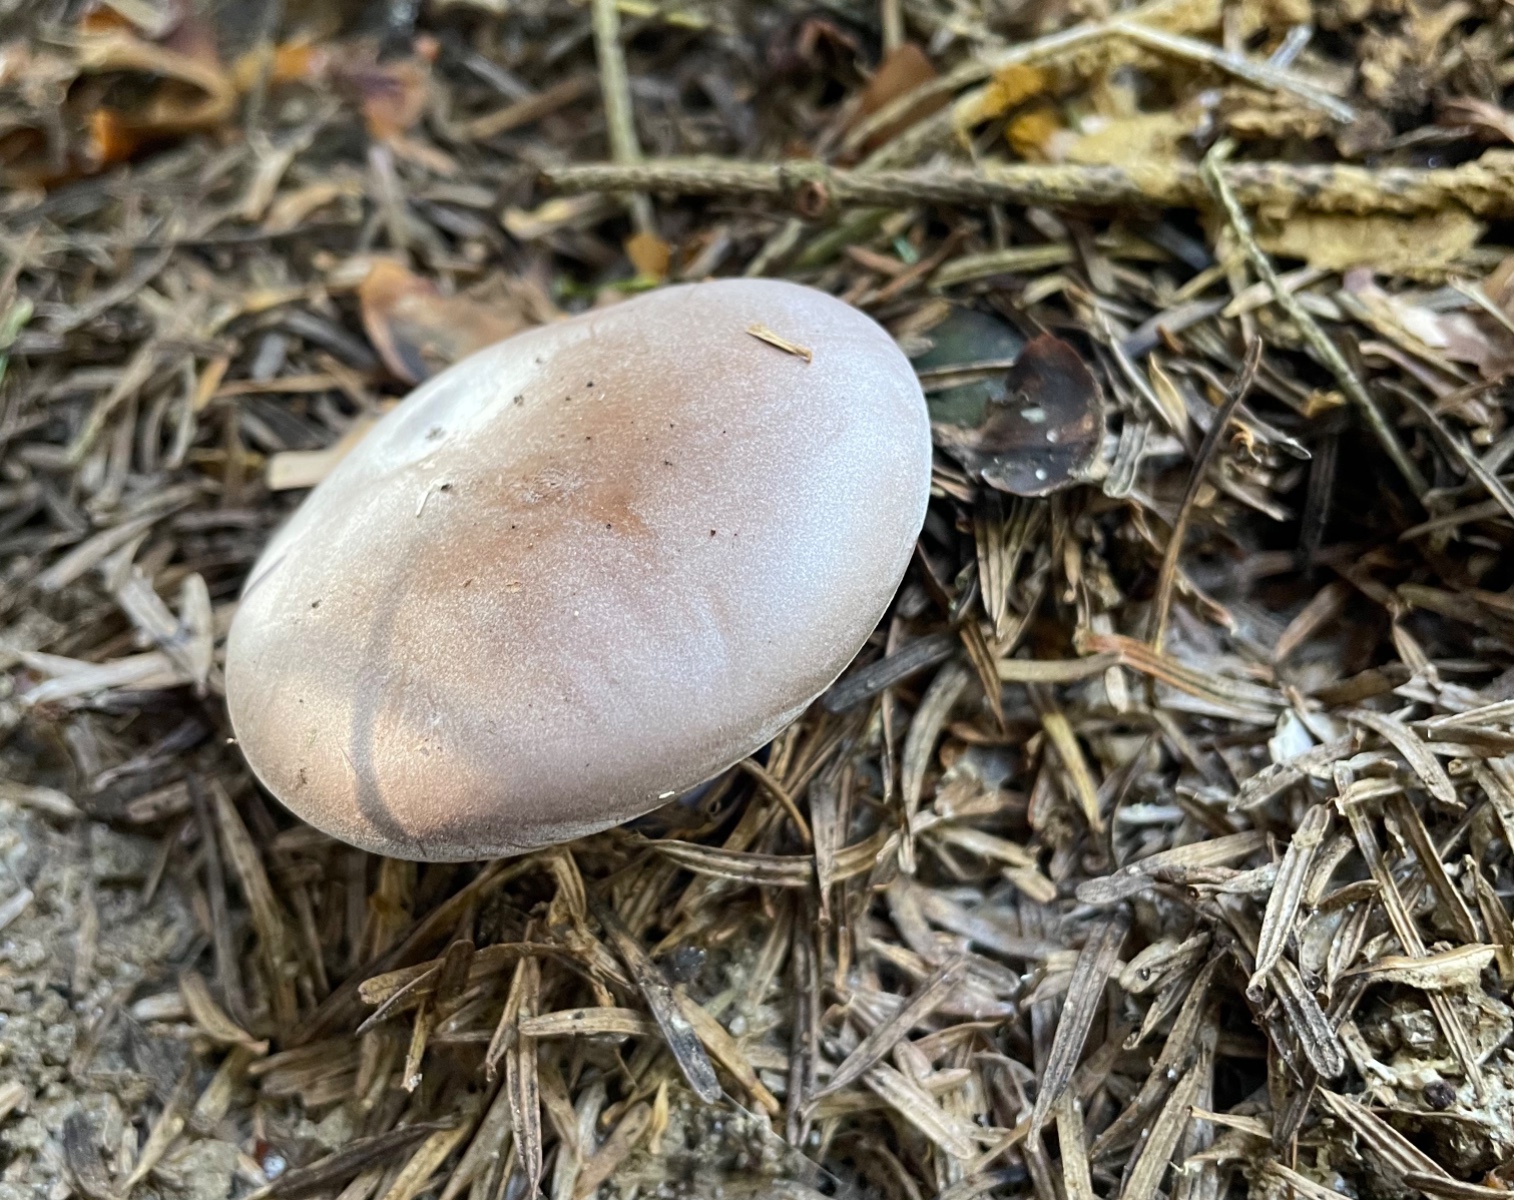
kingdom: Fungi
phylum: Basidiomycota
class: Agaricomycetes
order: Agaricales
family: Tricholomataceae
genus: Lepista
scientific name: Lepista nuda
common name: violet hekseringshat
